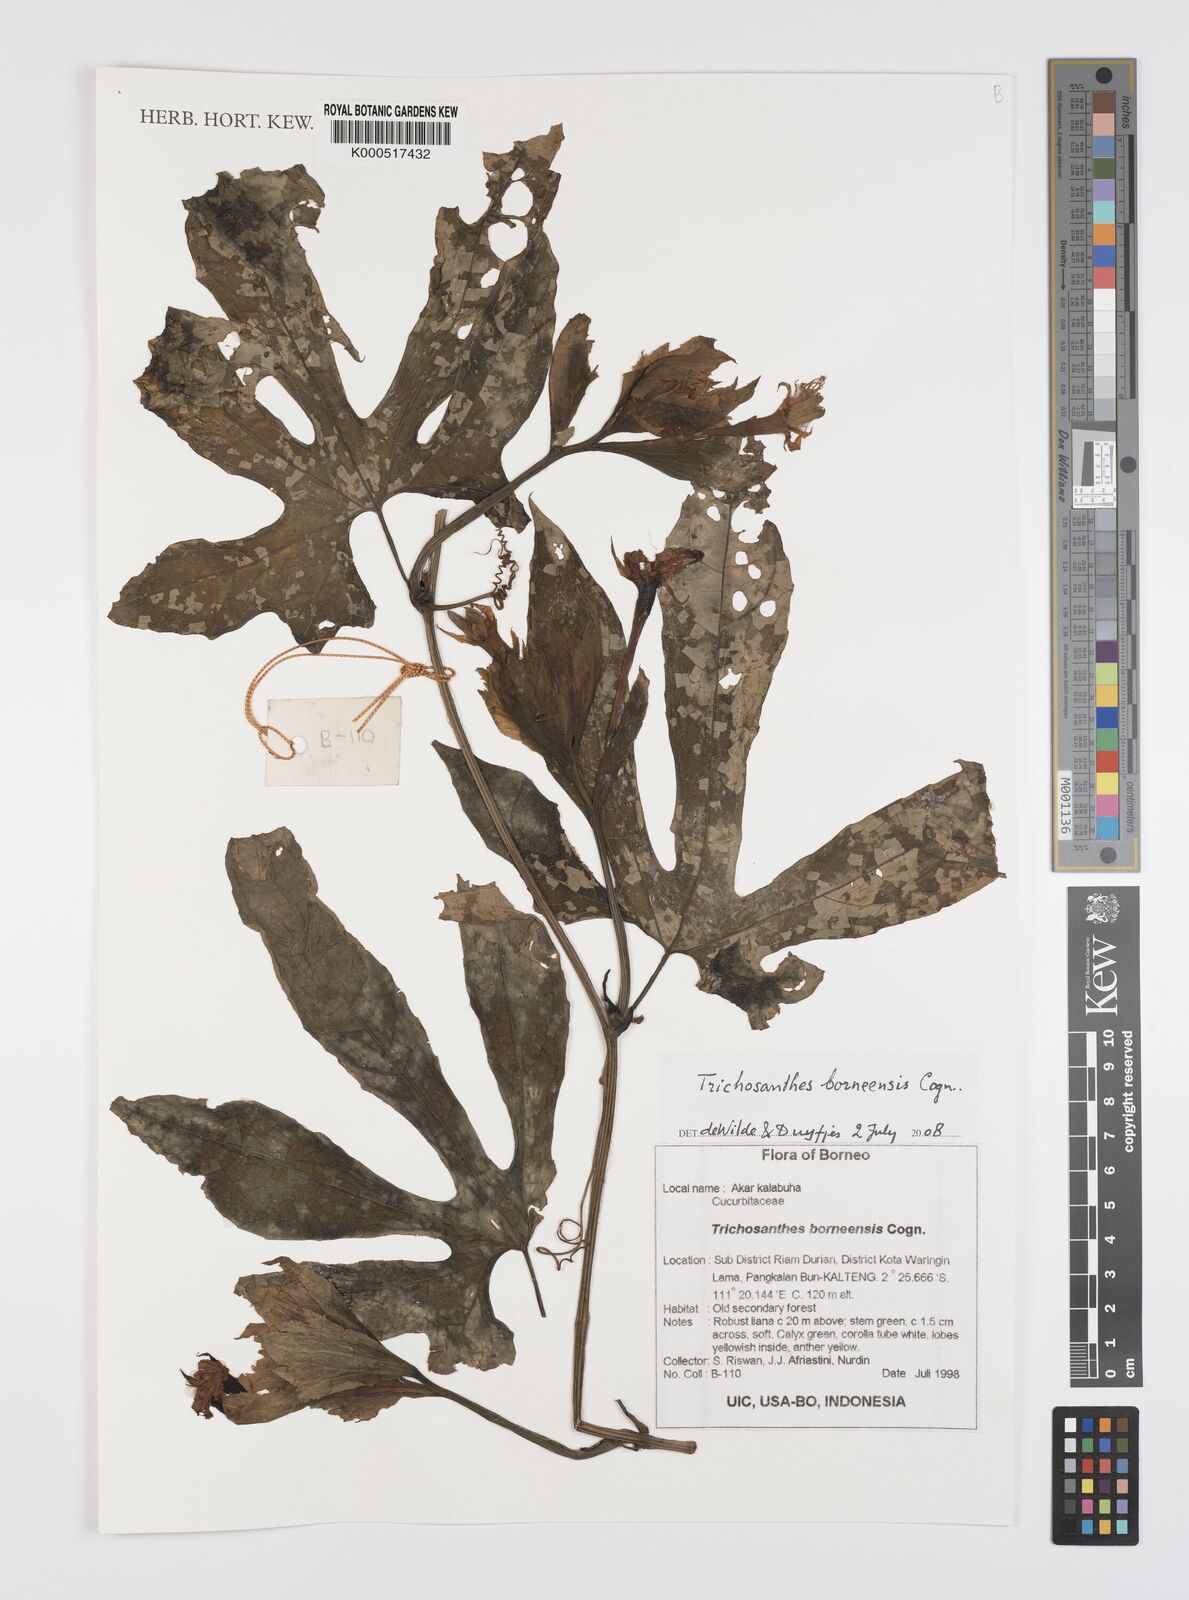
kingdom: Plantae
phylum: Tracheophyta
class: Magnoliopsida
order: Cucurbitales
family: Cucurbitaceae
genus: Trichosanthes
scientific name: Trichosanthes borneensis
